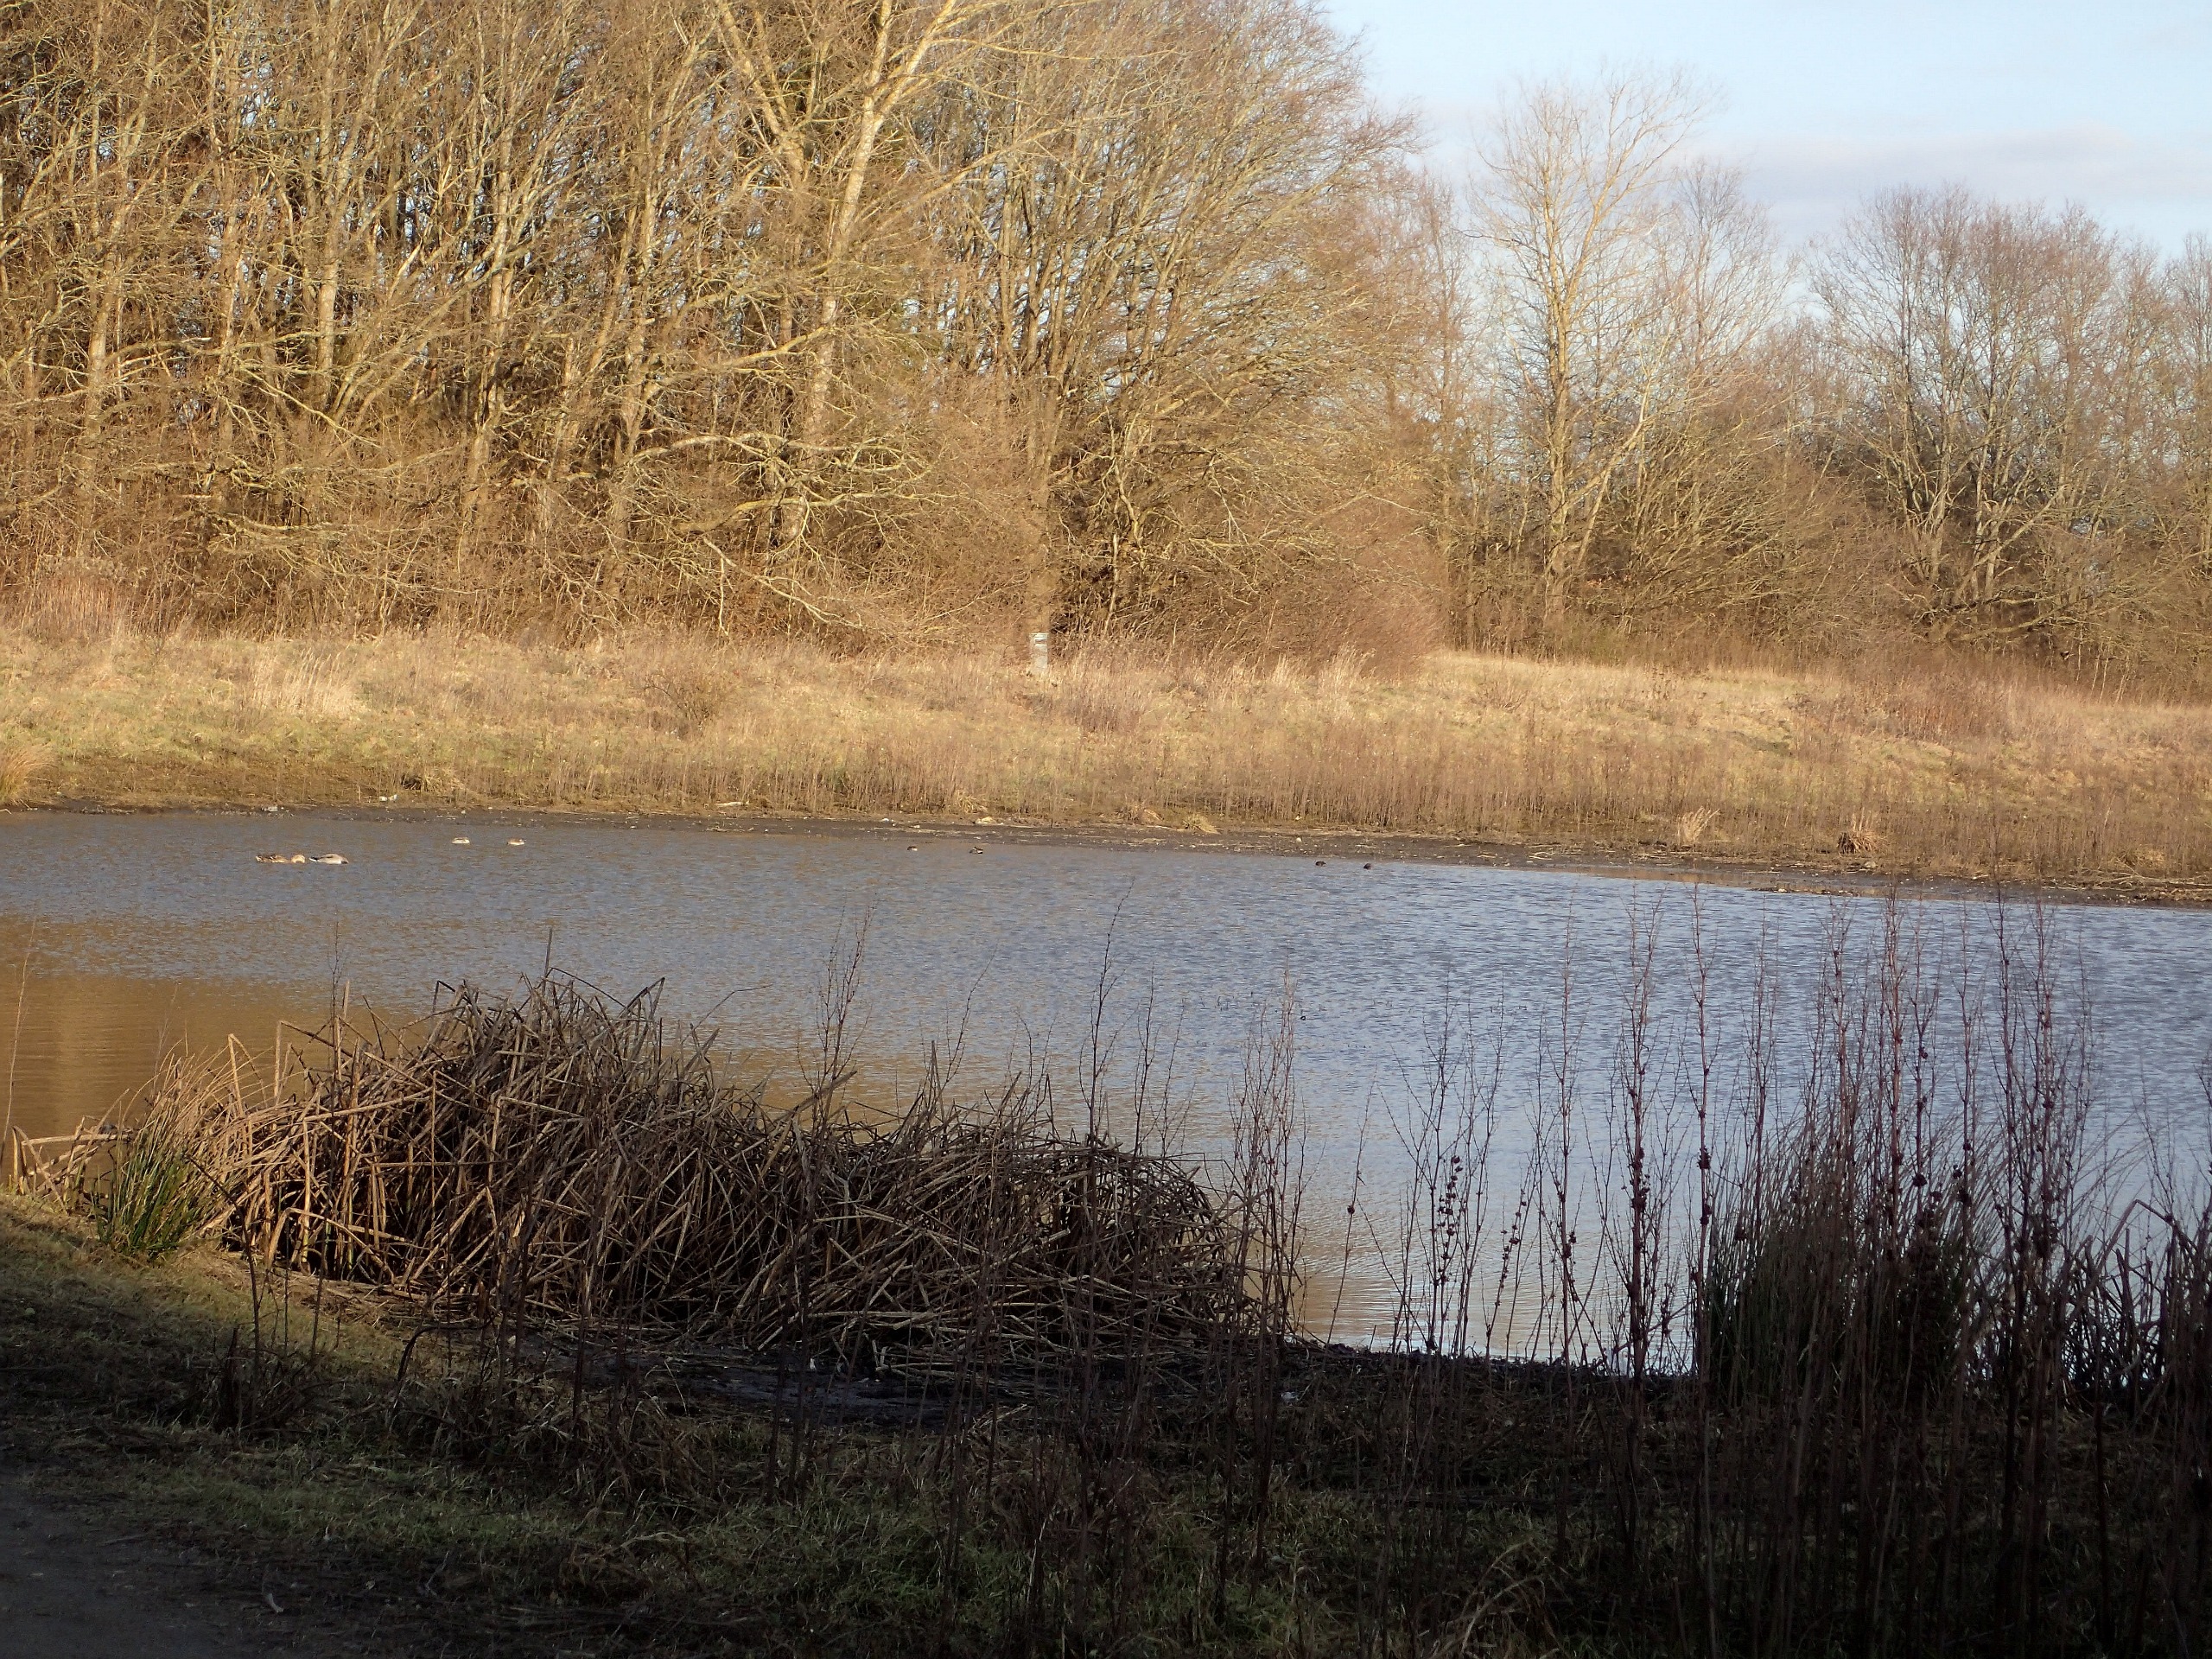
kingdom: Animalia
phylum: Chordata
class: Aves
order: Podicipediformes
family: Podicipedidae
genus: Tachybaptus
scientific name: Tachybaptus ruficollis
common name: Lille lappedykker
